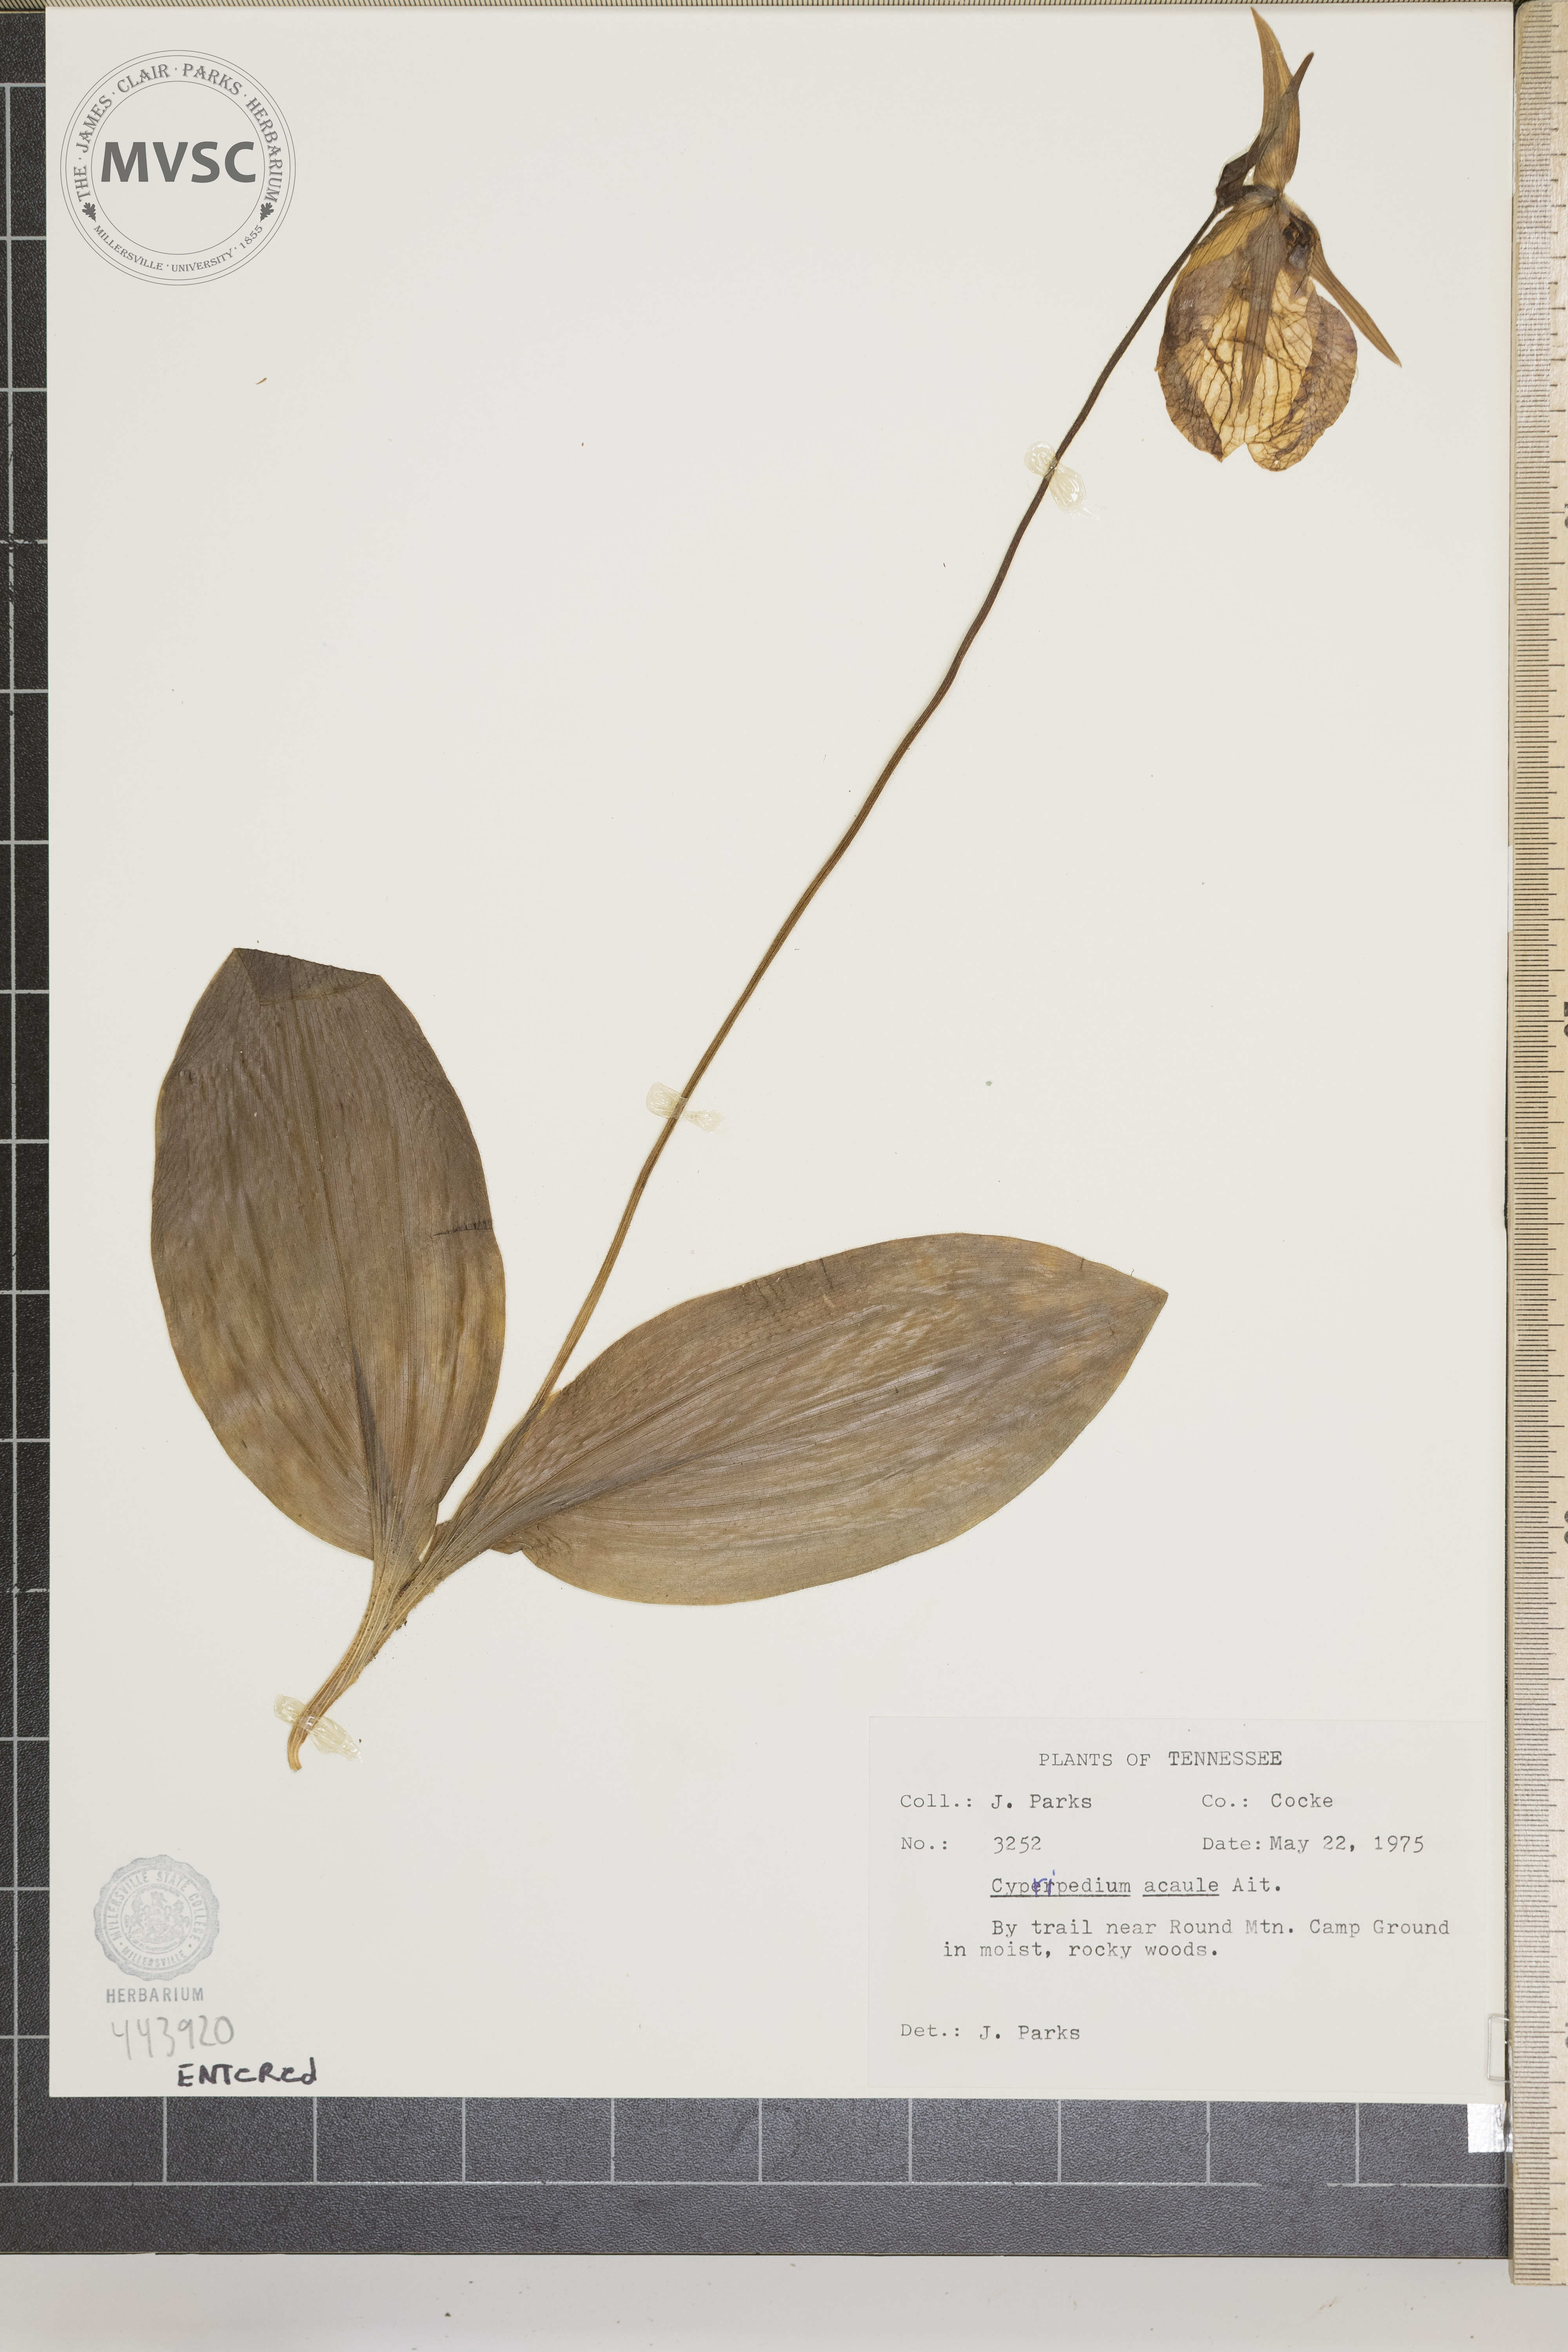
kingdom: Plantae
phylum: Tracheophyta
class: Liliopsida
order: Asparagales
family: Orchidaceae
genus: Cypripedium
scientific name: Cypripedium acaule
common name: Pink lady's-slipper
